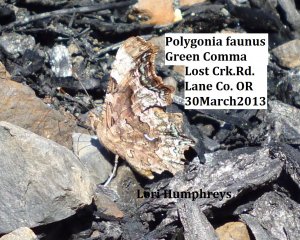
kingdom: Animalia
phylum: Arthropoda
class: Insecta
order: Lepidoptera
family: Nymphalidae
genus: Polygonia
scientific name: Polygonia faunus
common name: Green Comma
